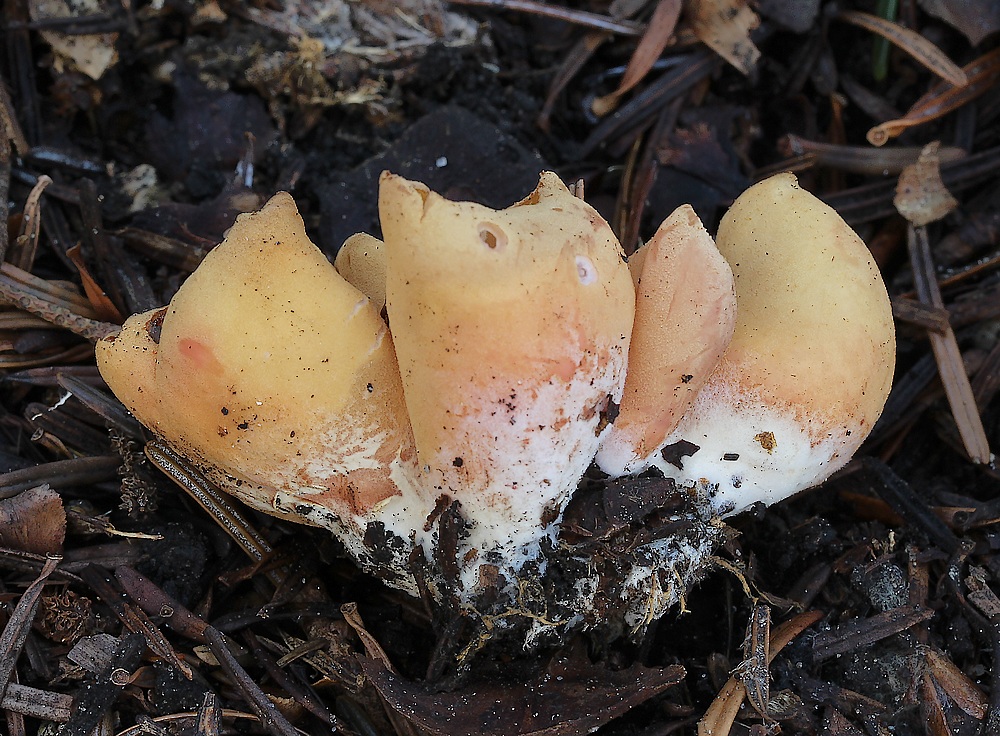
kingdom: Fungi
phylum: Ascomycota
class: Pezizomycetes
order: Pezizales
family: Otideaceae
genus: Otidea
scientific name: Otidea onotica
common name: æsel-ørebæger
